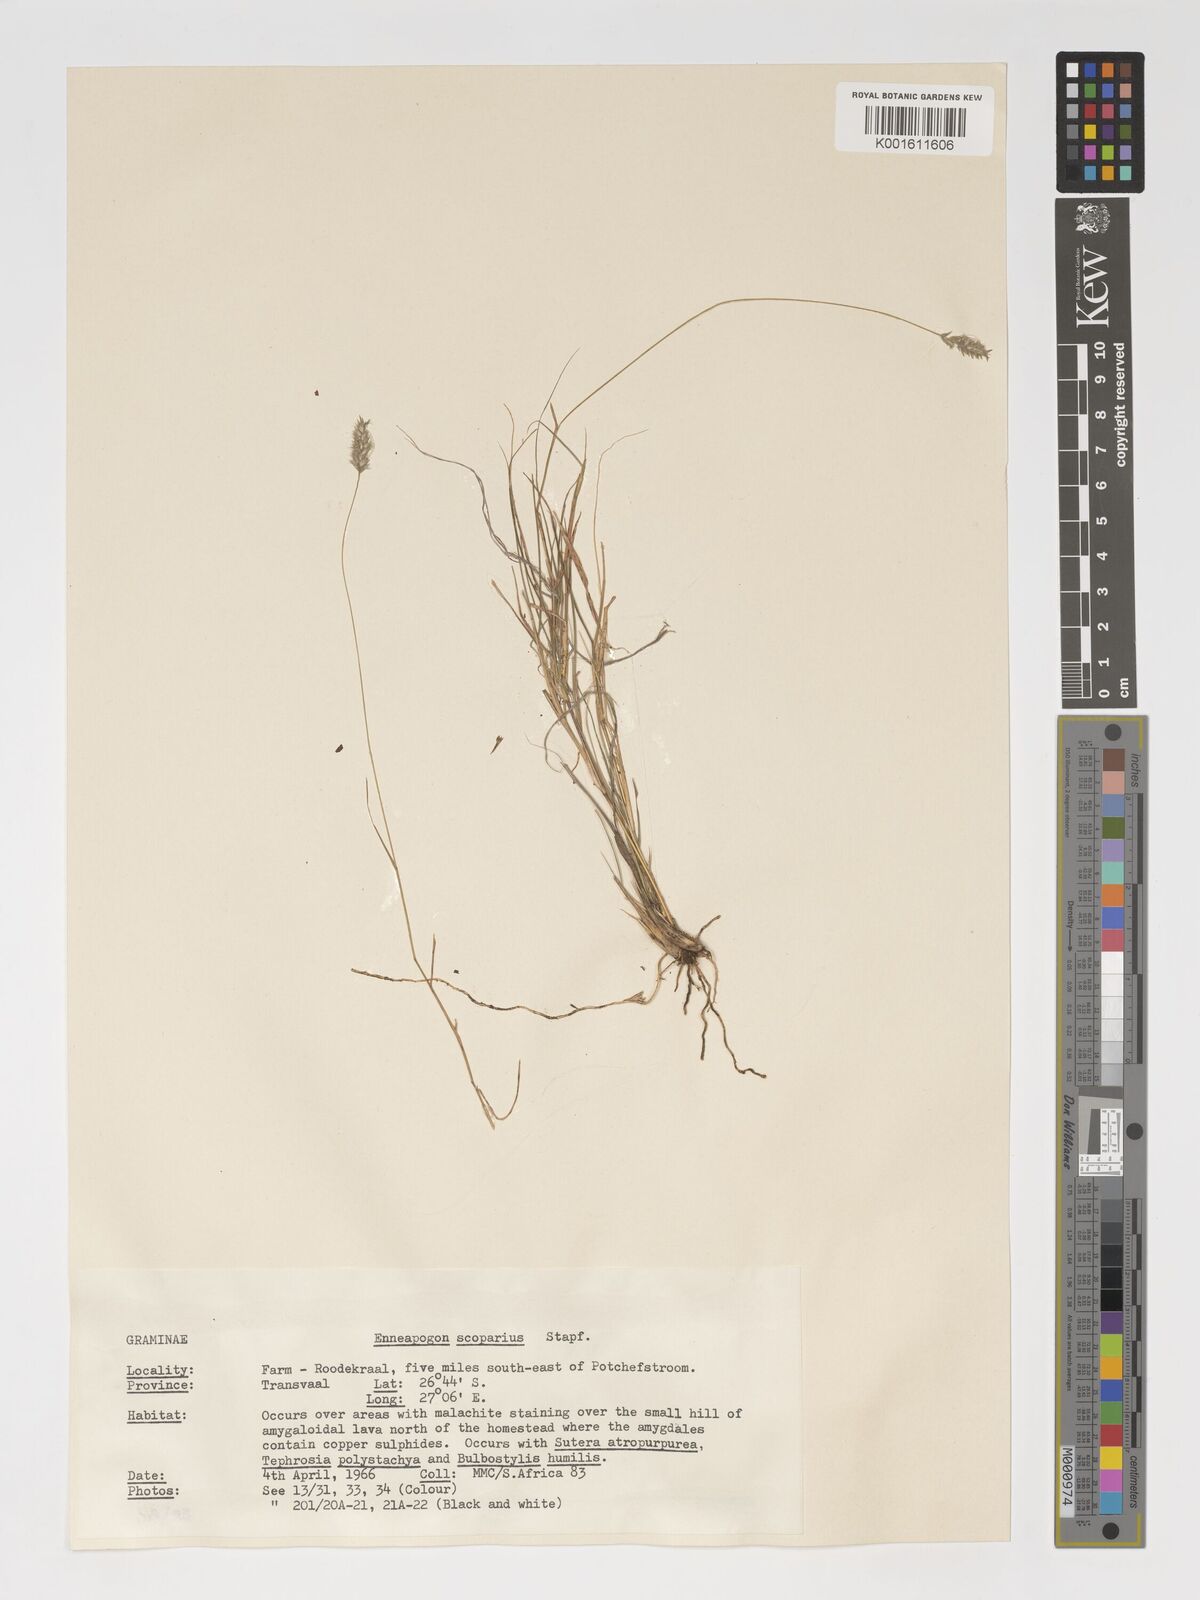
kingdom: Plantae
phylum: Tracheophyta
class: Liliopsida
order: Poales
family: Poaceae
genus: Enneapogon
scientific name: Enneapogon scoparius
